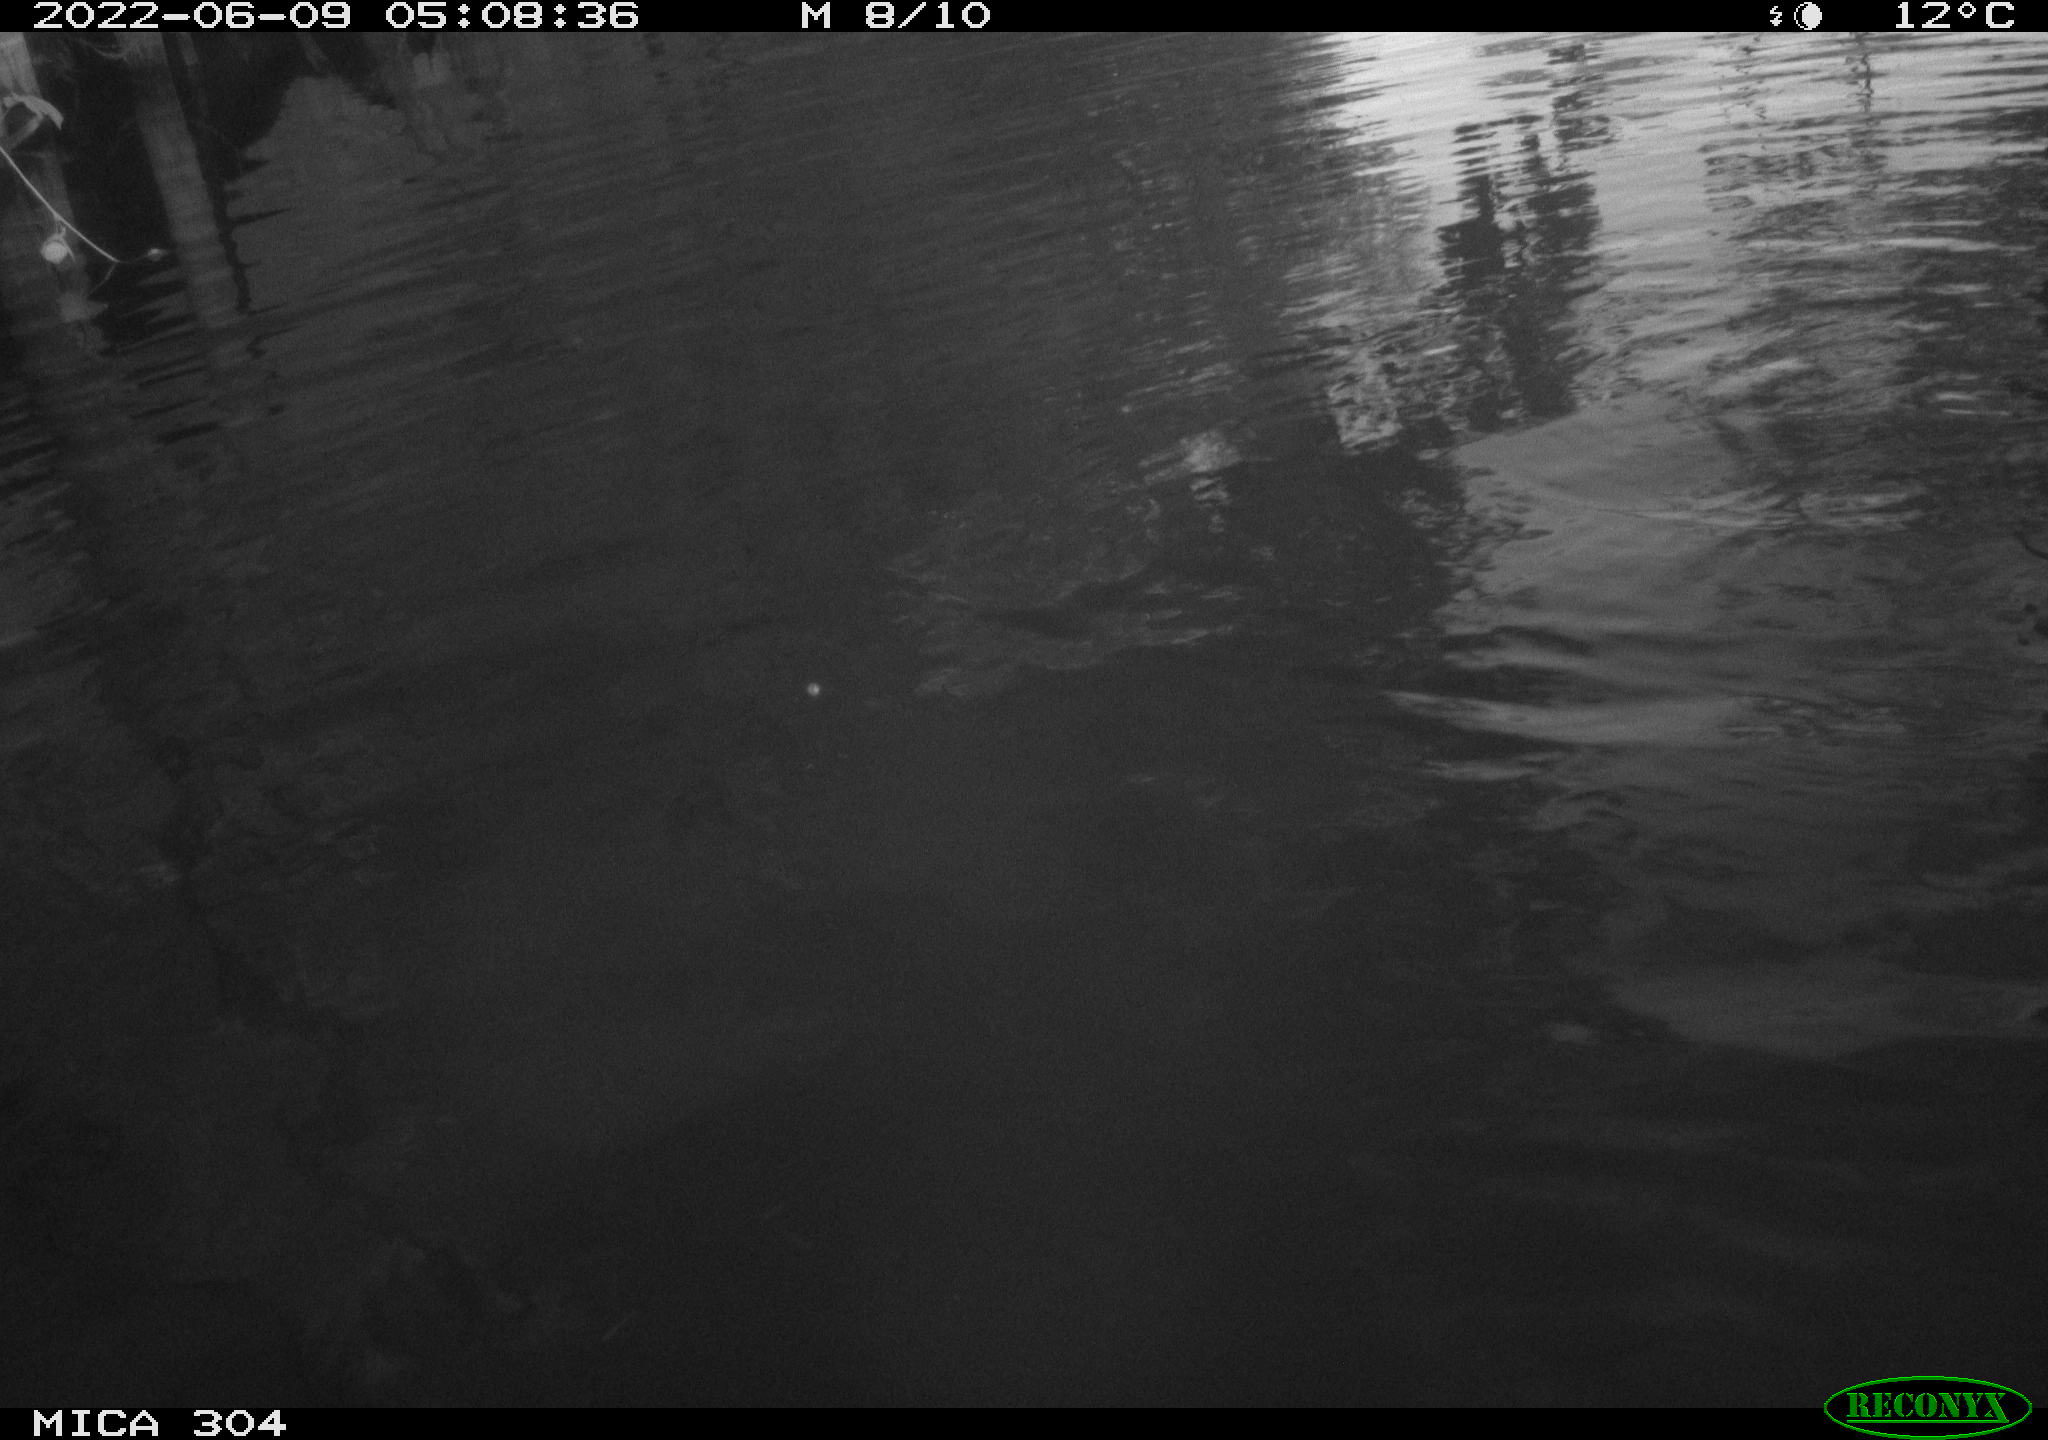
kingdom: Animalia
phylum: Chordata
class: Aves
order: Anseriformes
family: Anatidae
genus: Anas
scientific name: Anas platyrhynchos
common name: Mallard
